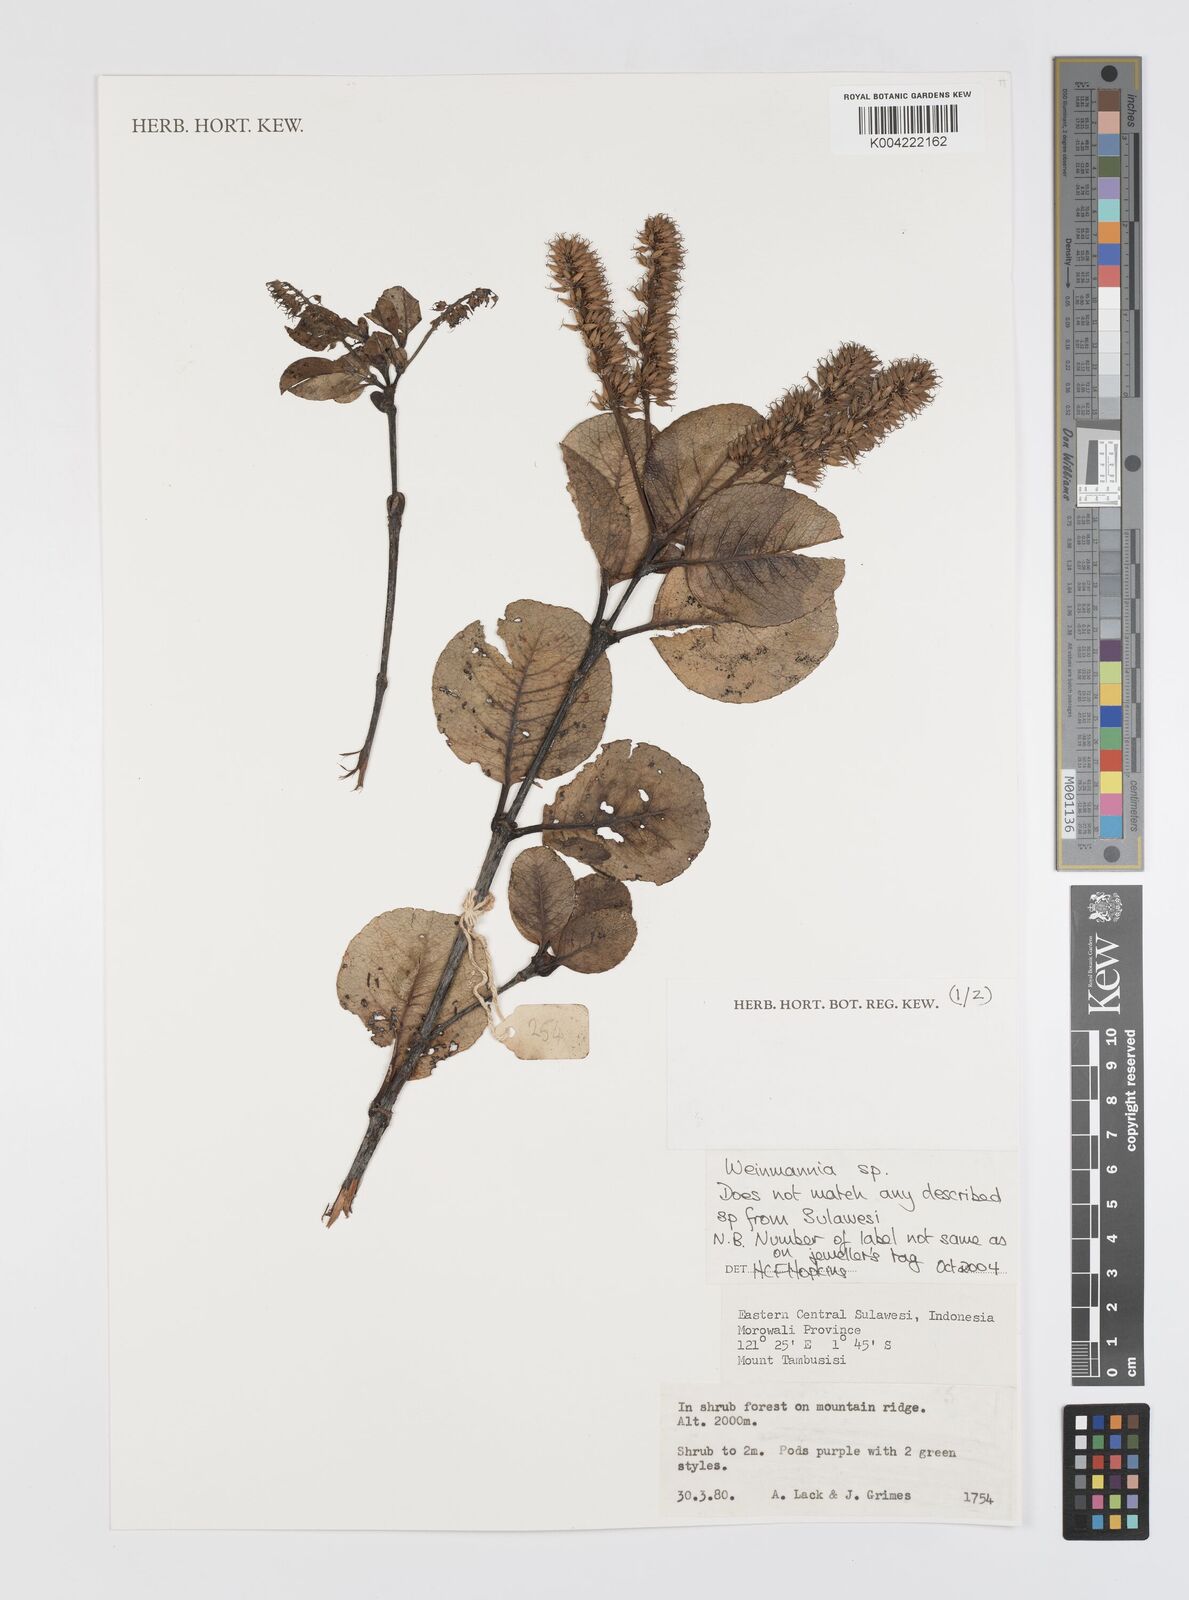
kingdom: Plantae
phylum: Tracheophyta
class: Magnoliopsida
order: Oxalidales
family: Cunoniaceae
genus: Weinmannia
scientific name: Weinmannia
